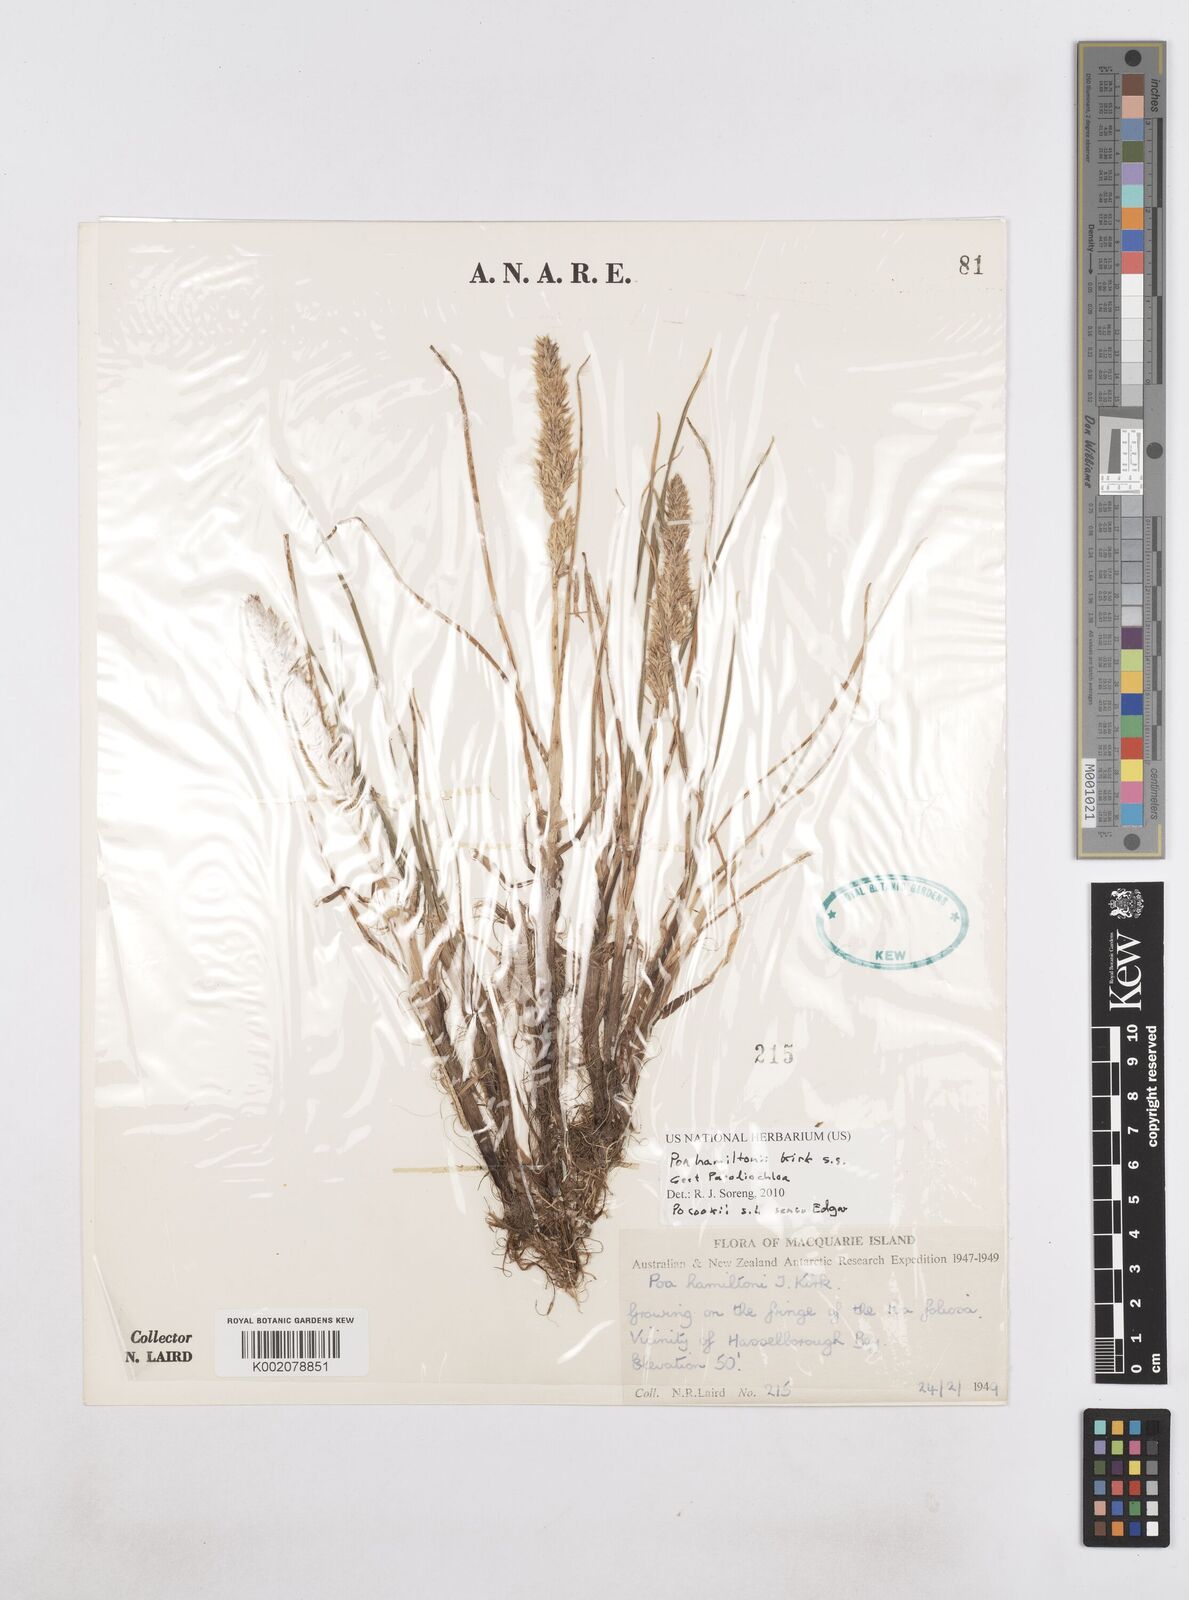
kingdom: Plantae
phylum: Tracheophyta
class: Liliopsida
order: Poales
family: Poaceae
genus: Poa
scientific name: Poa cookii
